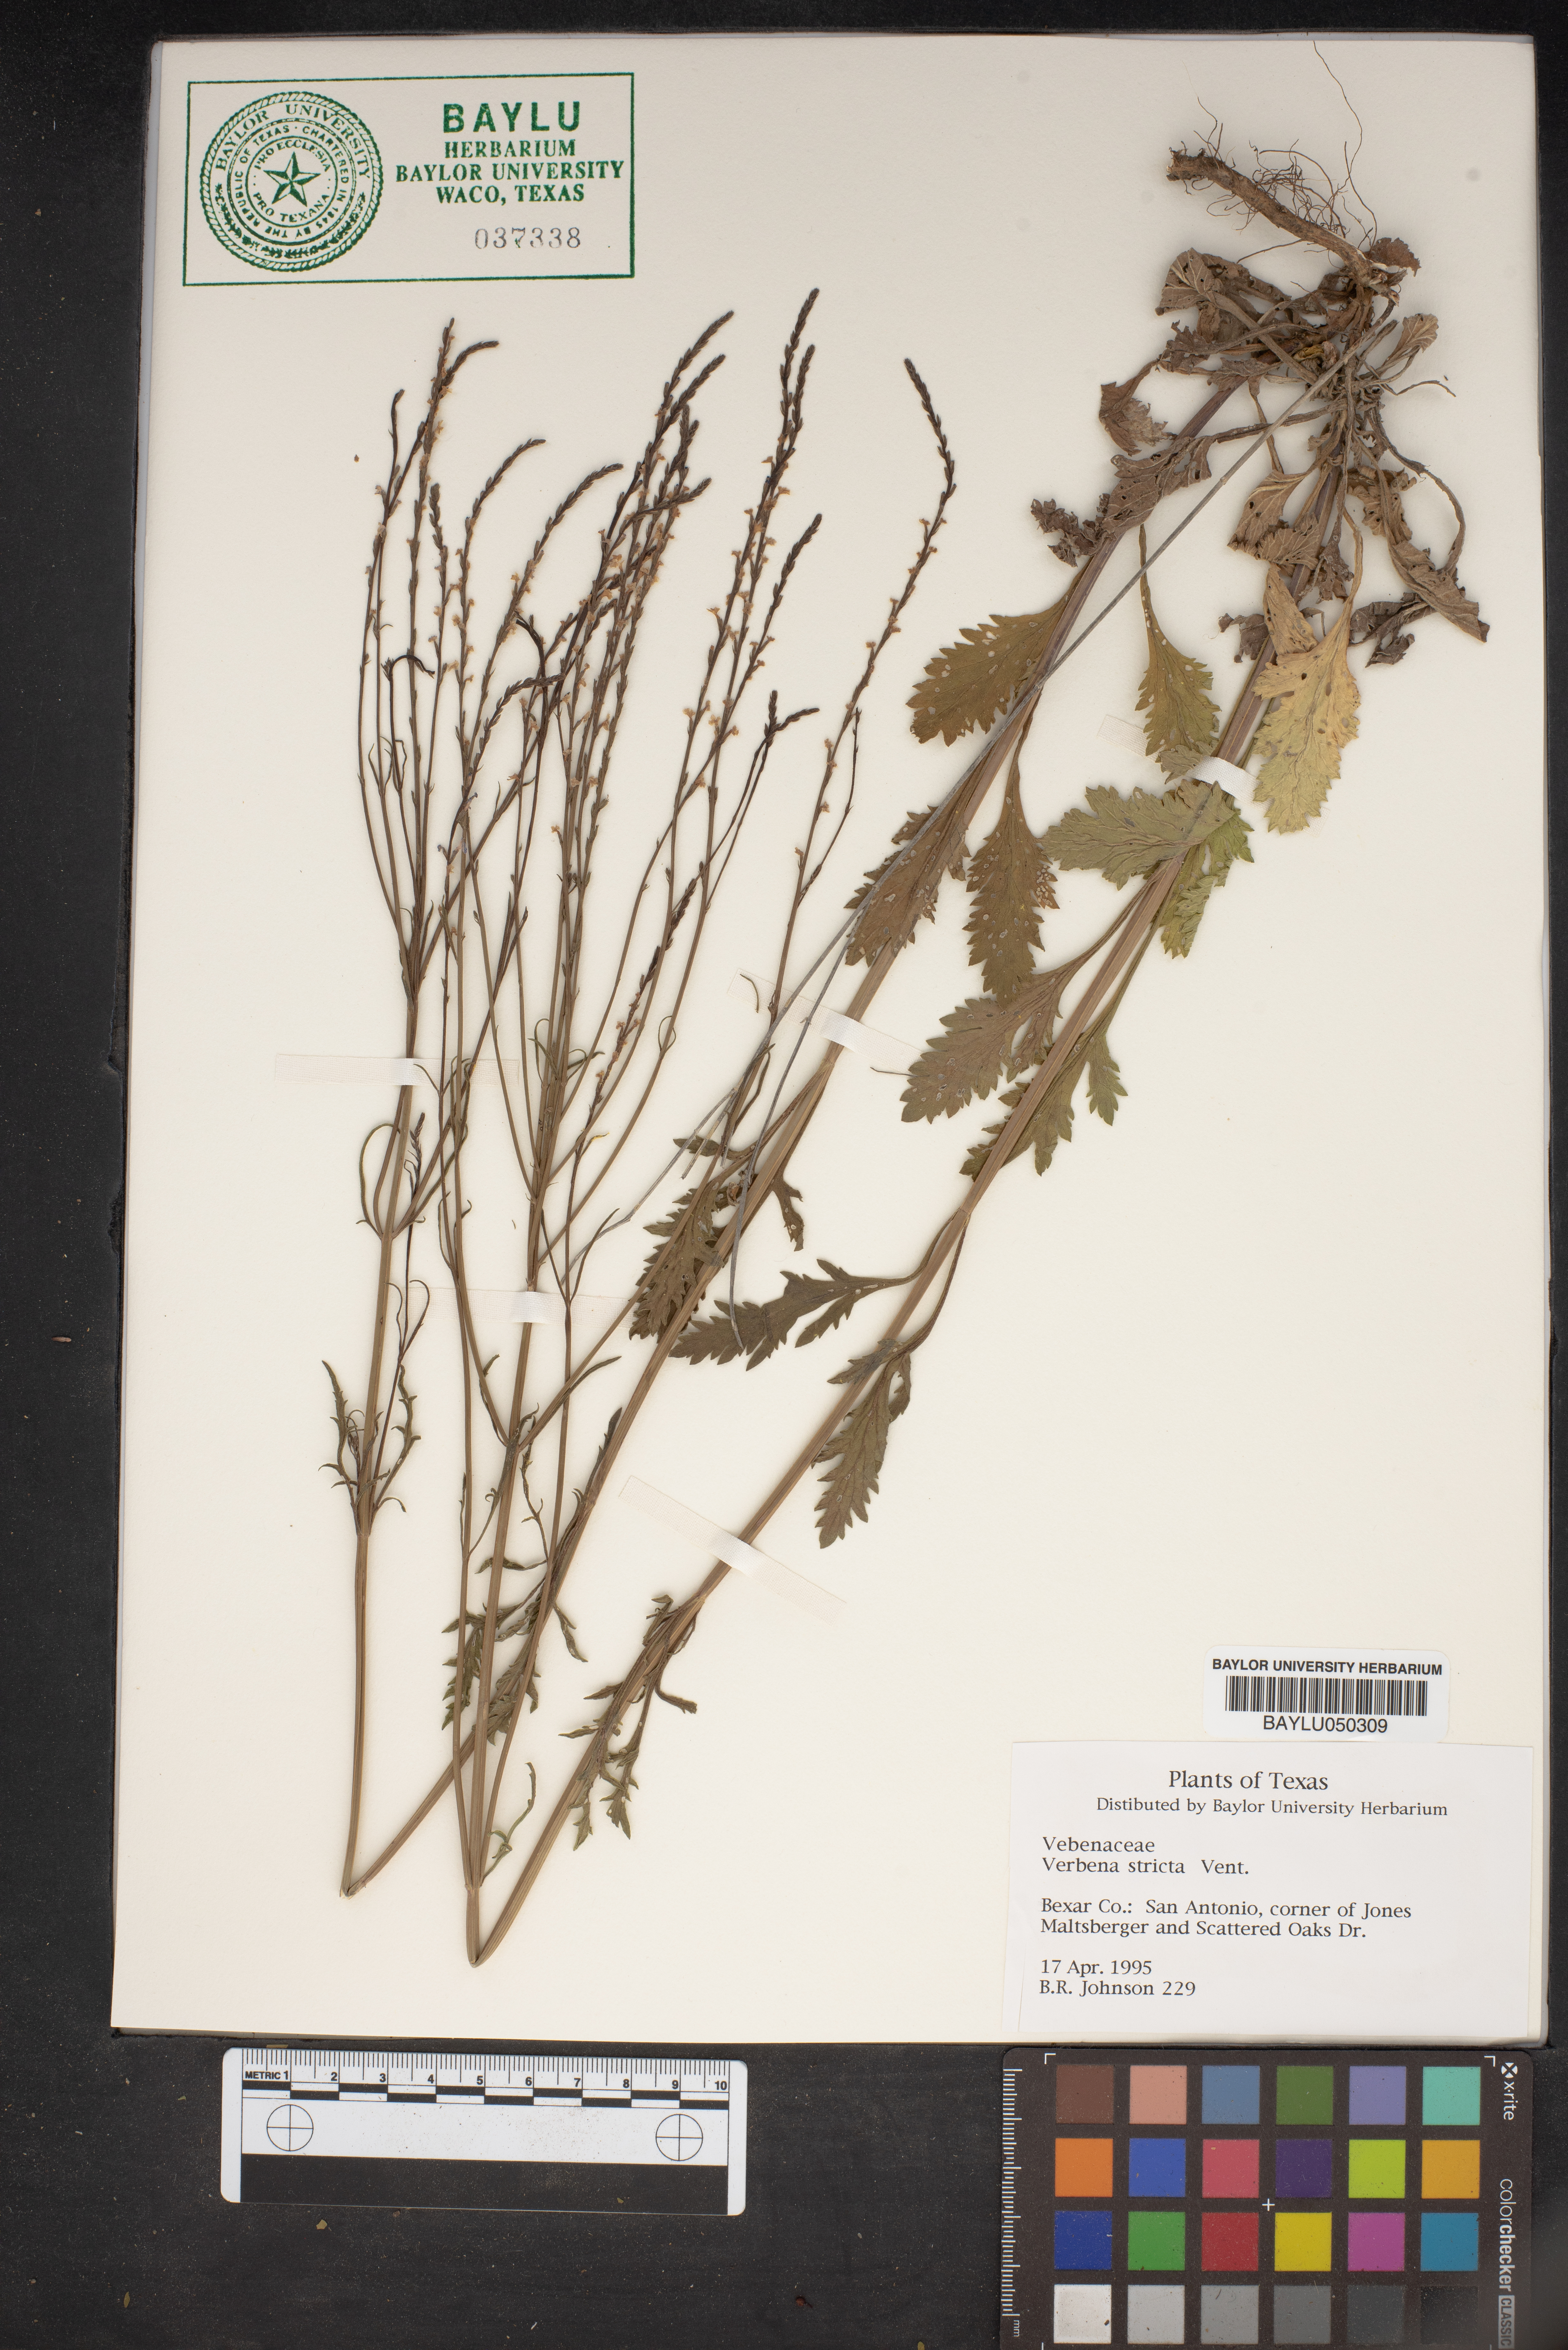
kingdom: Plantae
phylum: Tracheophyta
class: Magnoliopsida
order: Lamiales
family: Verbenaceae
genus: Verbena
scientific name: Verbena stricta
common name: Hoary vervain
